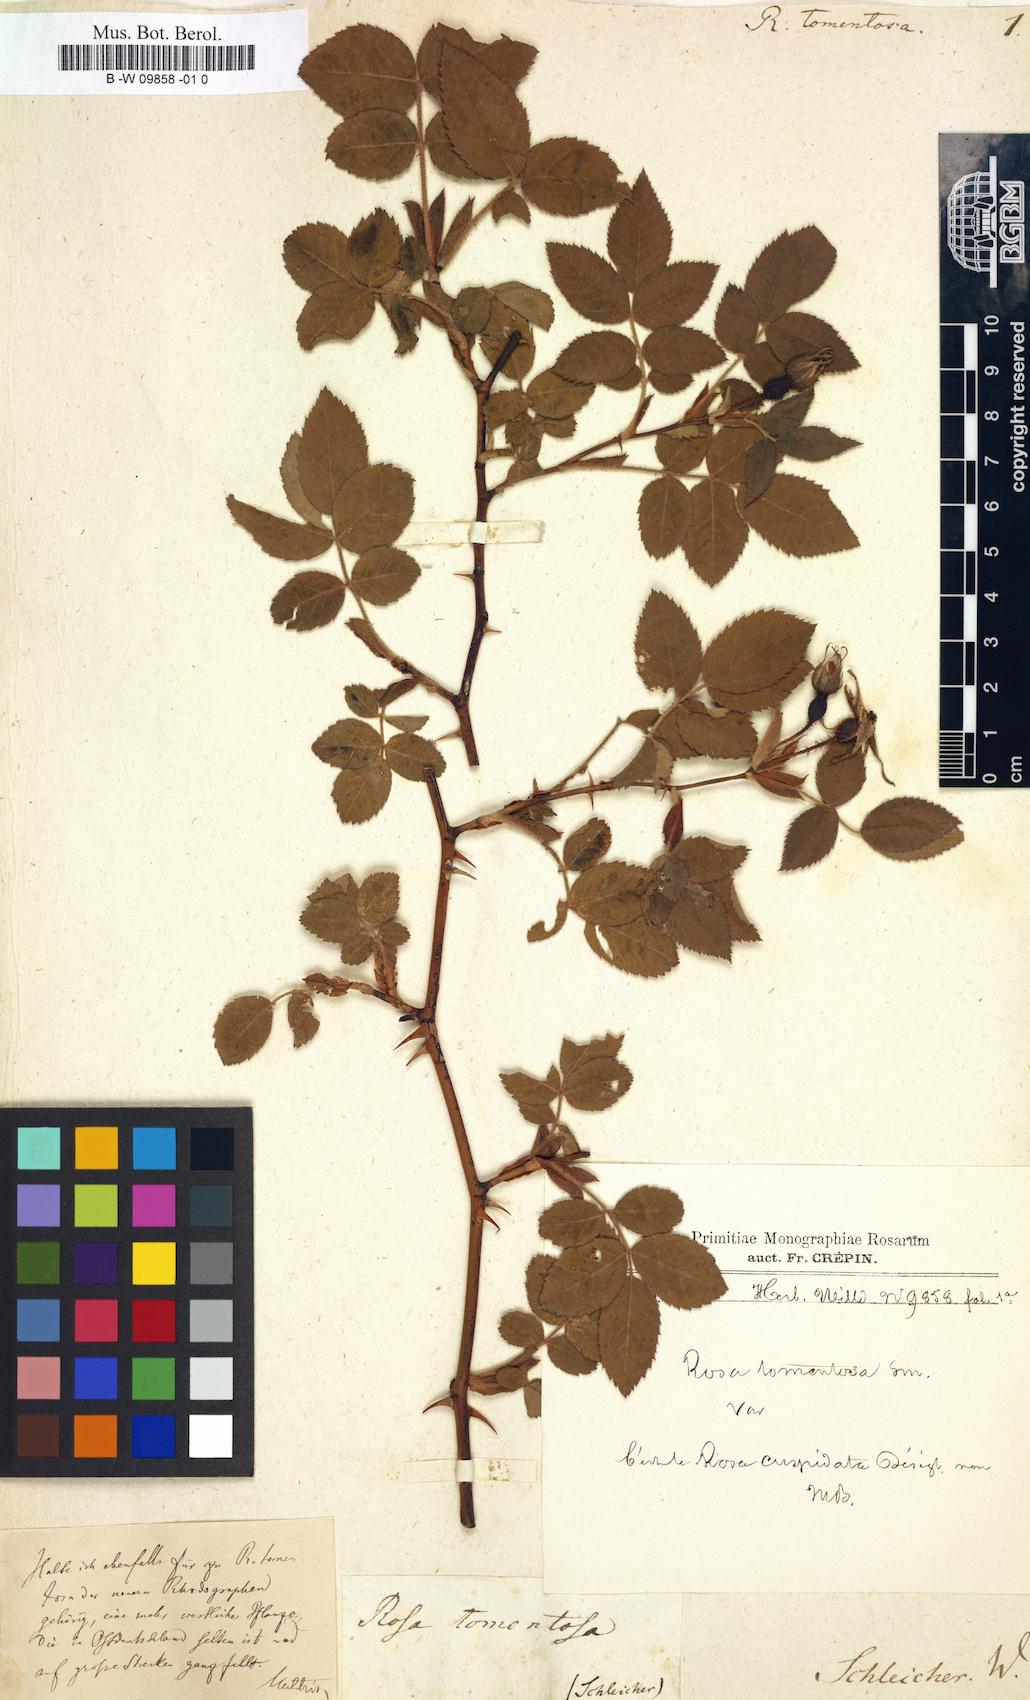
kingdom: Plantae
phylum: Tracheophyta
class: Magnoliopsida
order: Rosales
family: Rosaceae
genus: Rosa
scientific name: Rosa tomentosa
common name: Downy rose
